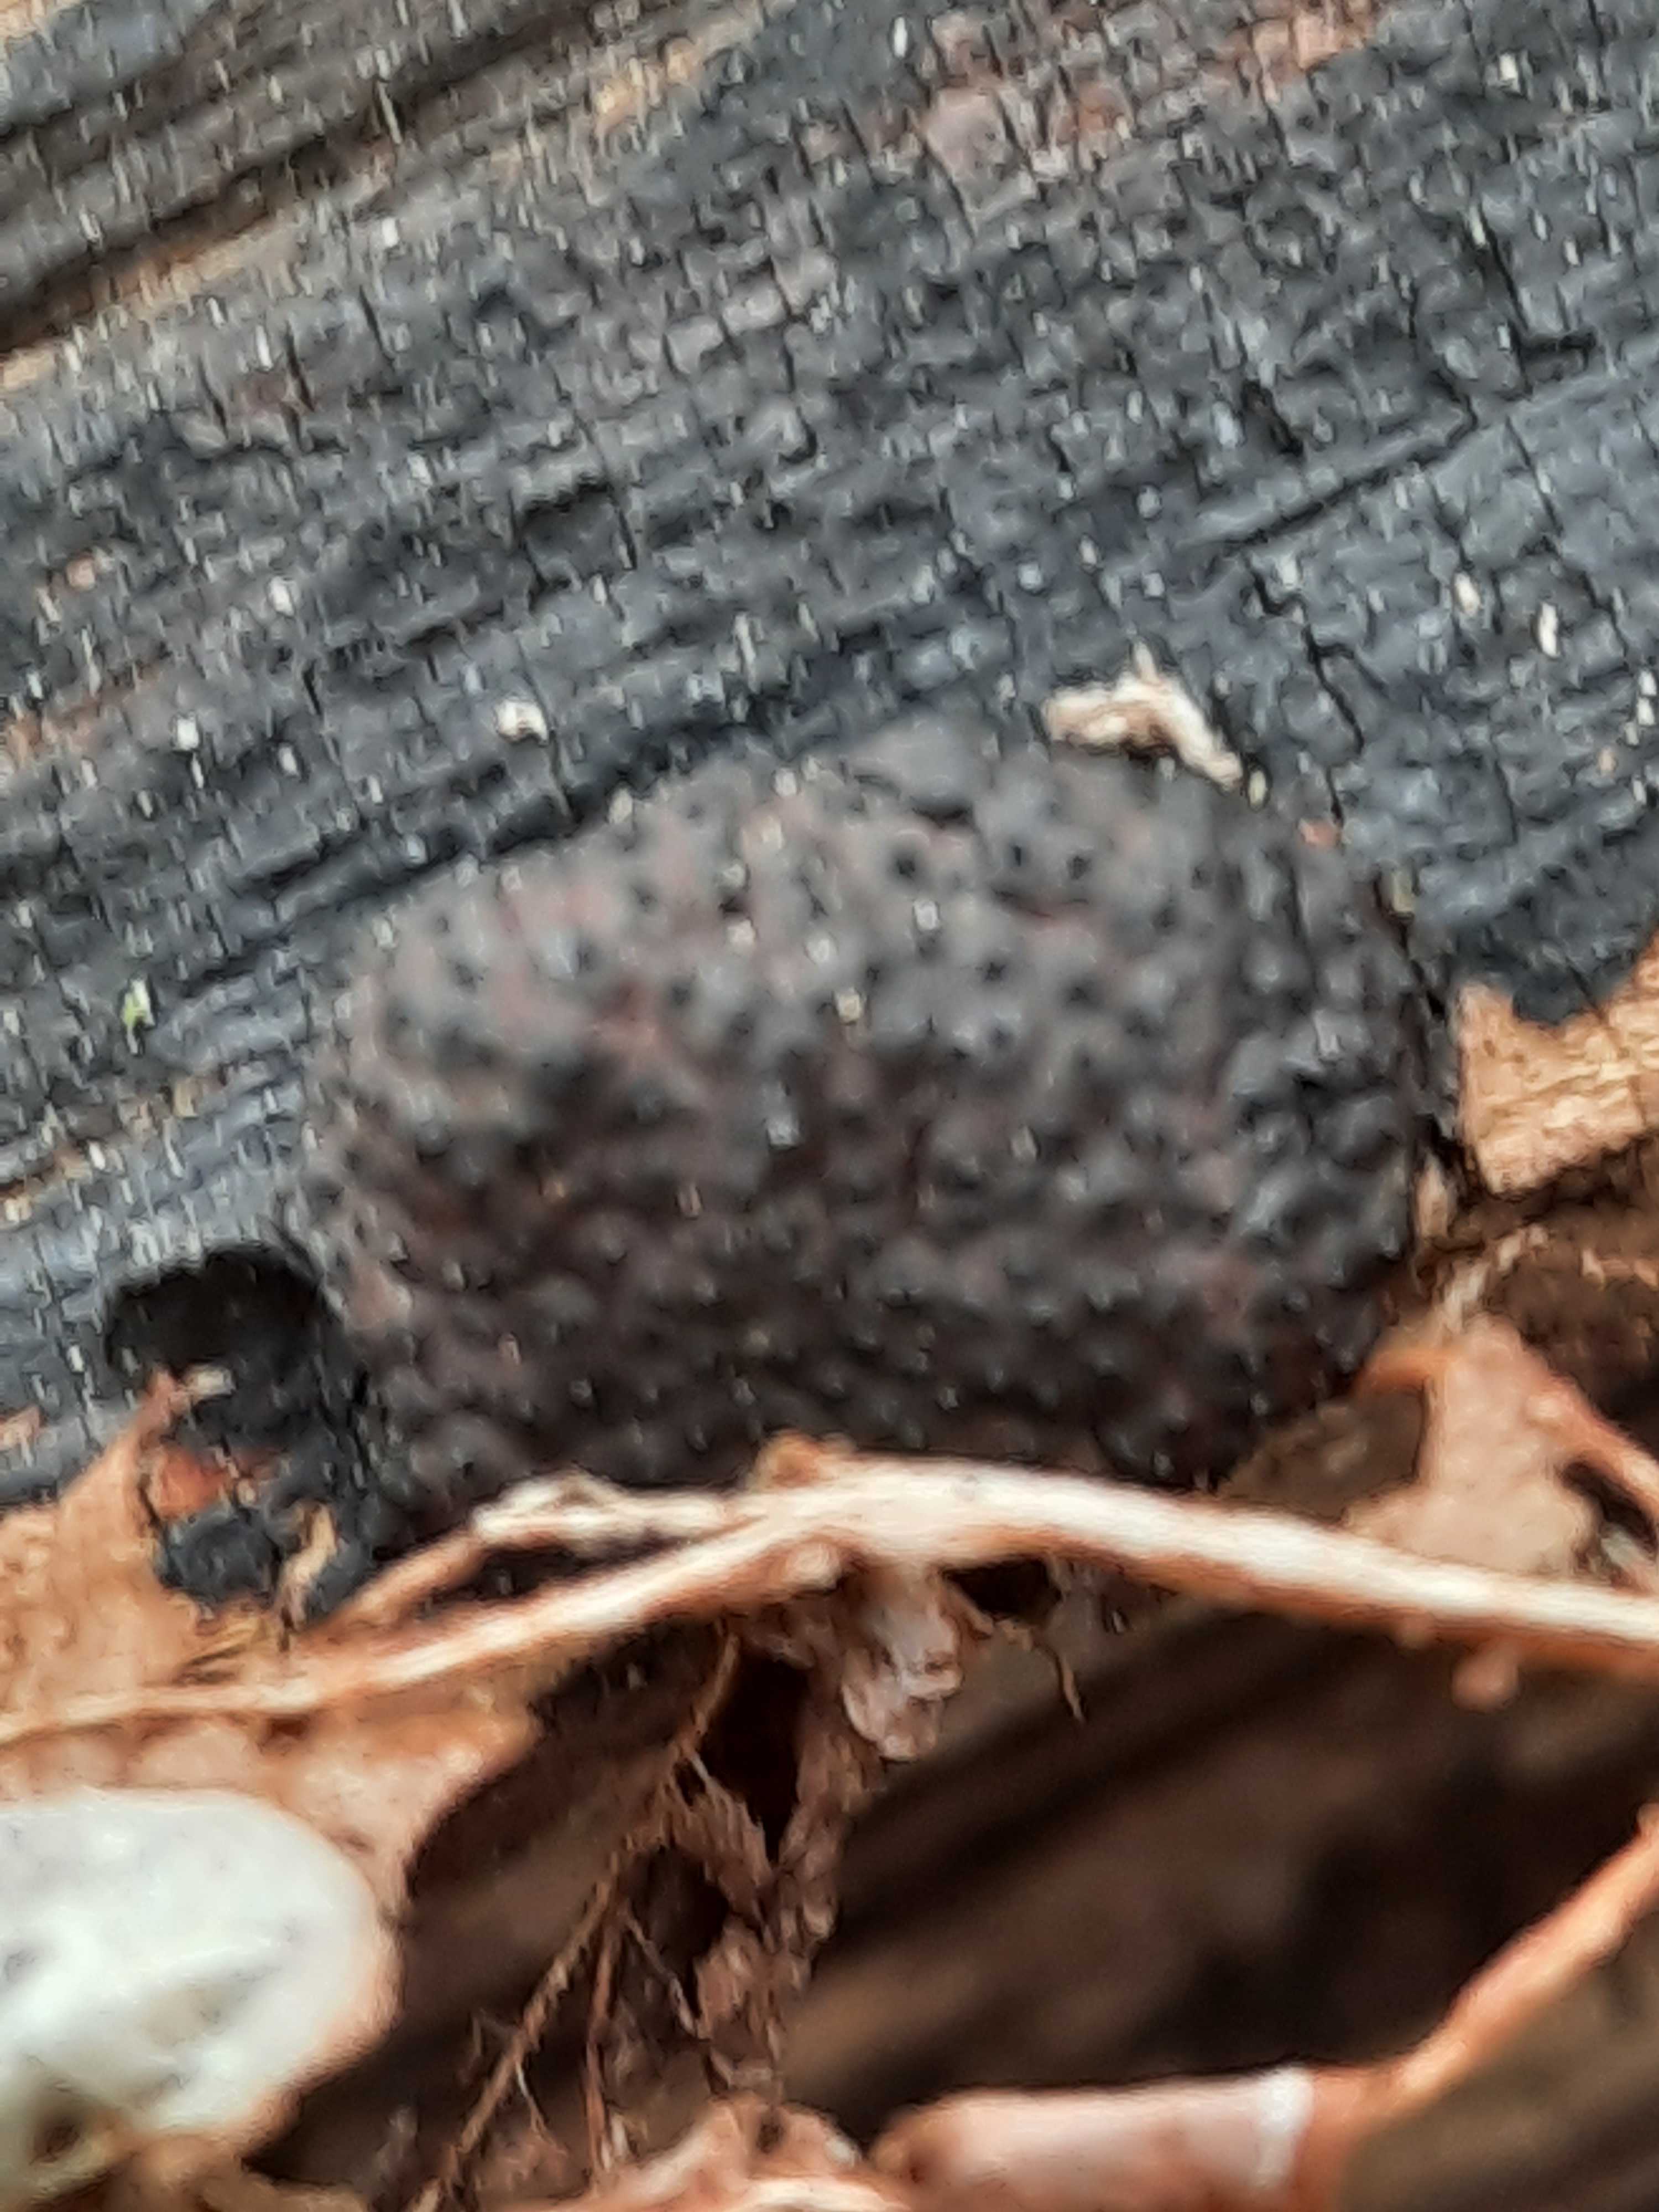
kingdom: Fungi
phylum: Ascomycota
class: Sordariomycetes
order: Xylariales
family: Hypoxylaceae
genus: Jackrogersella
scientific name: Jackrogersella multiformis
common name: foranderlig kulbær
